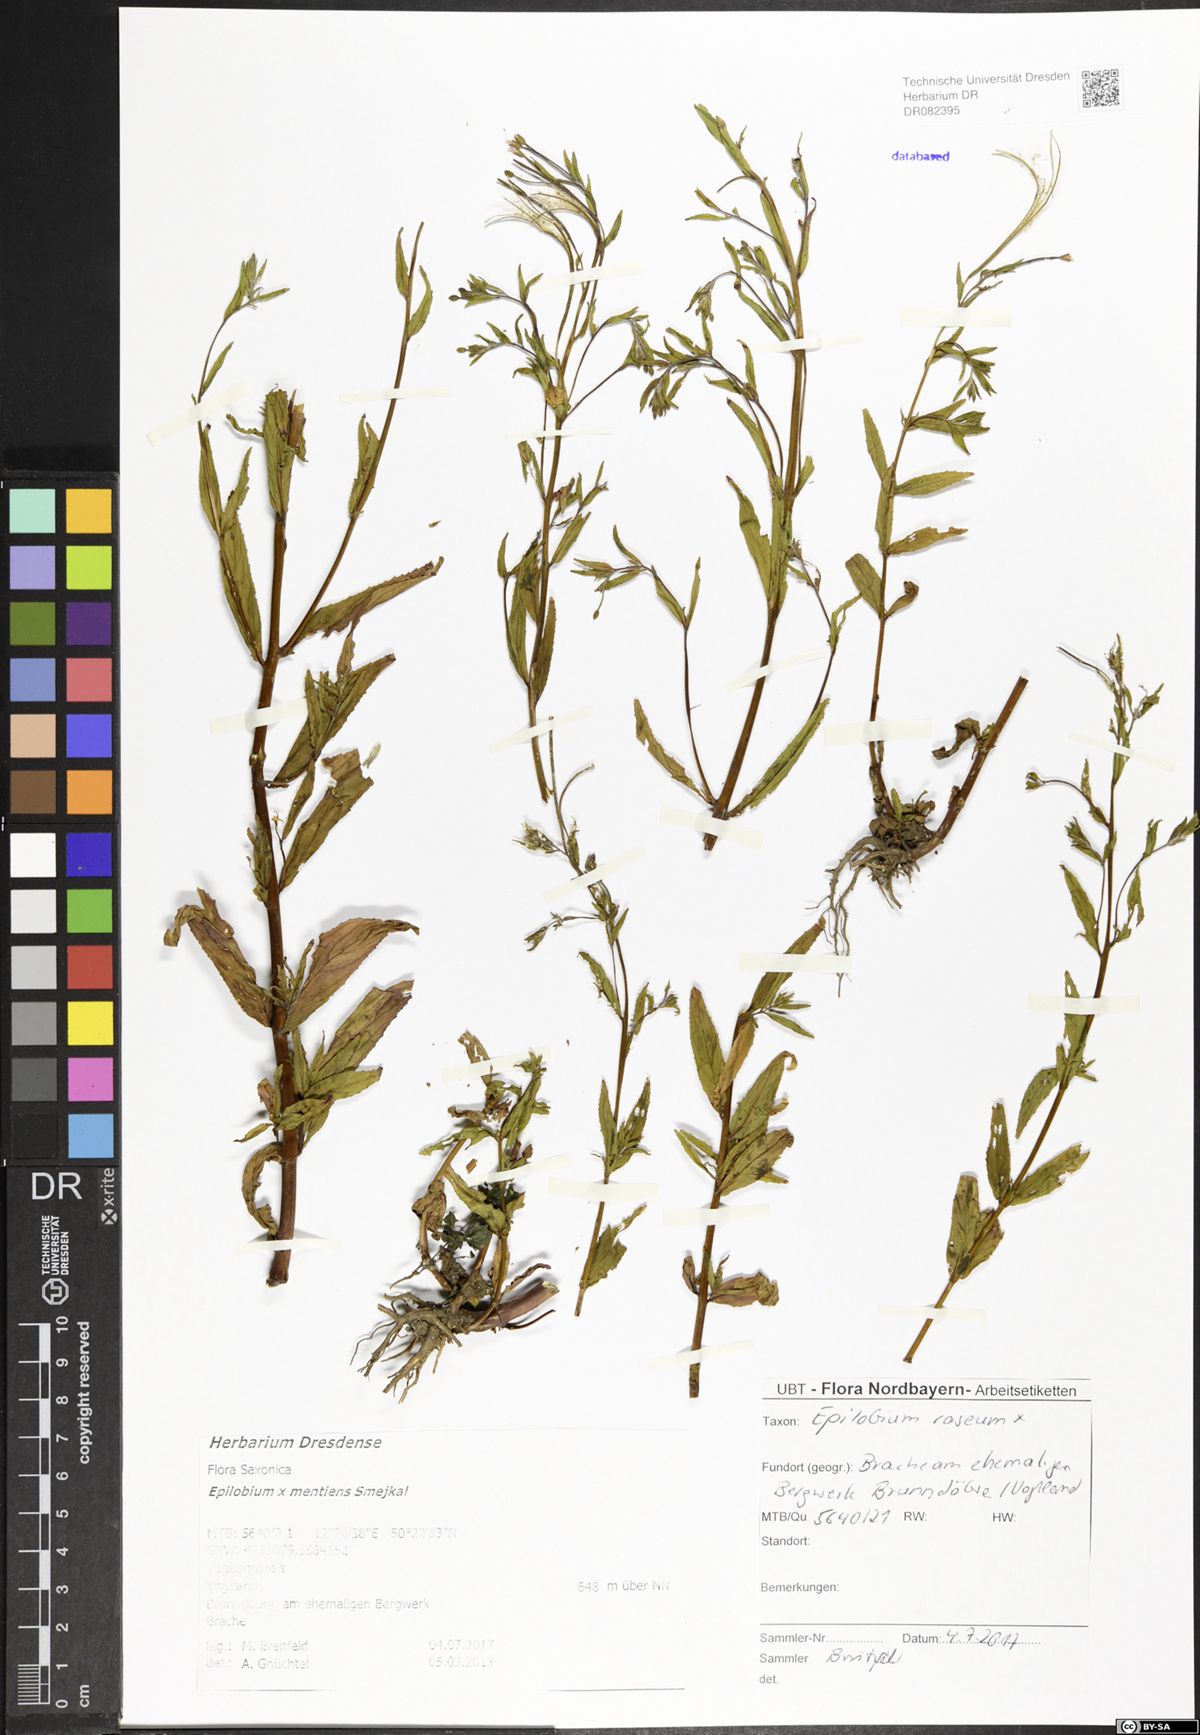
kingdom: Plantae
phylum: Tracheophyta
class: Magnoliopsida
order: Myrtales
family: Onagraceae
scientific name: Onagraceae
